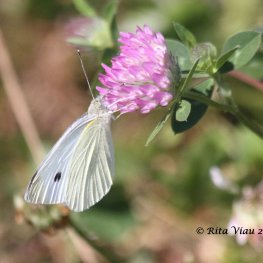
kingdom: Animalia
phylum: Arthropoda
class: Insecta
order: Lepidoptera
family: Pieridae
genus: Pieris
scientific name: Pieris rapae
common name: Cabbage White
